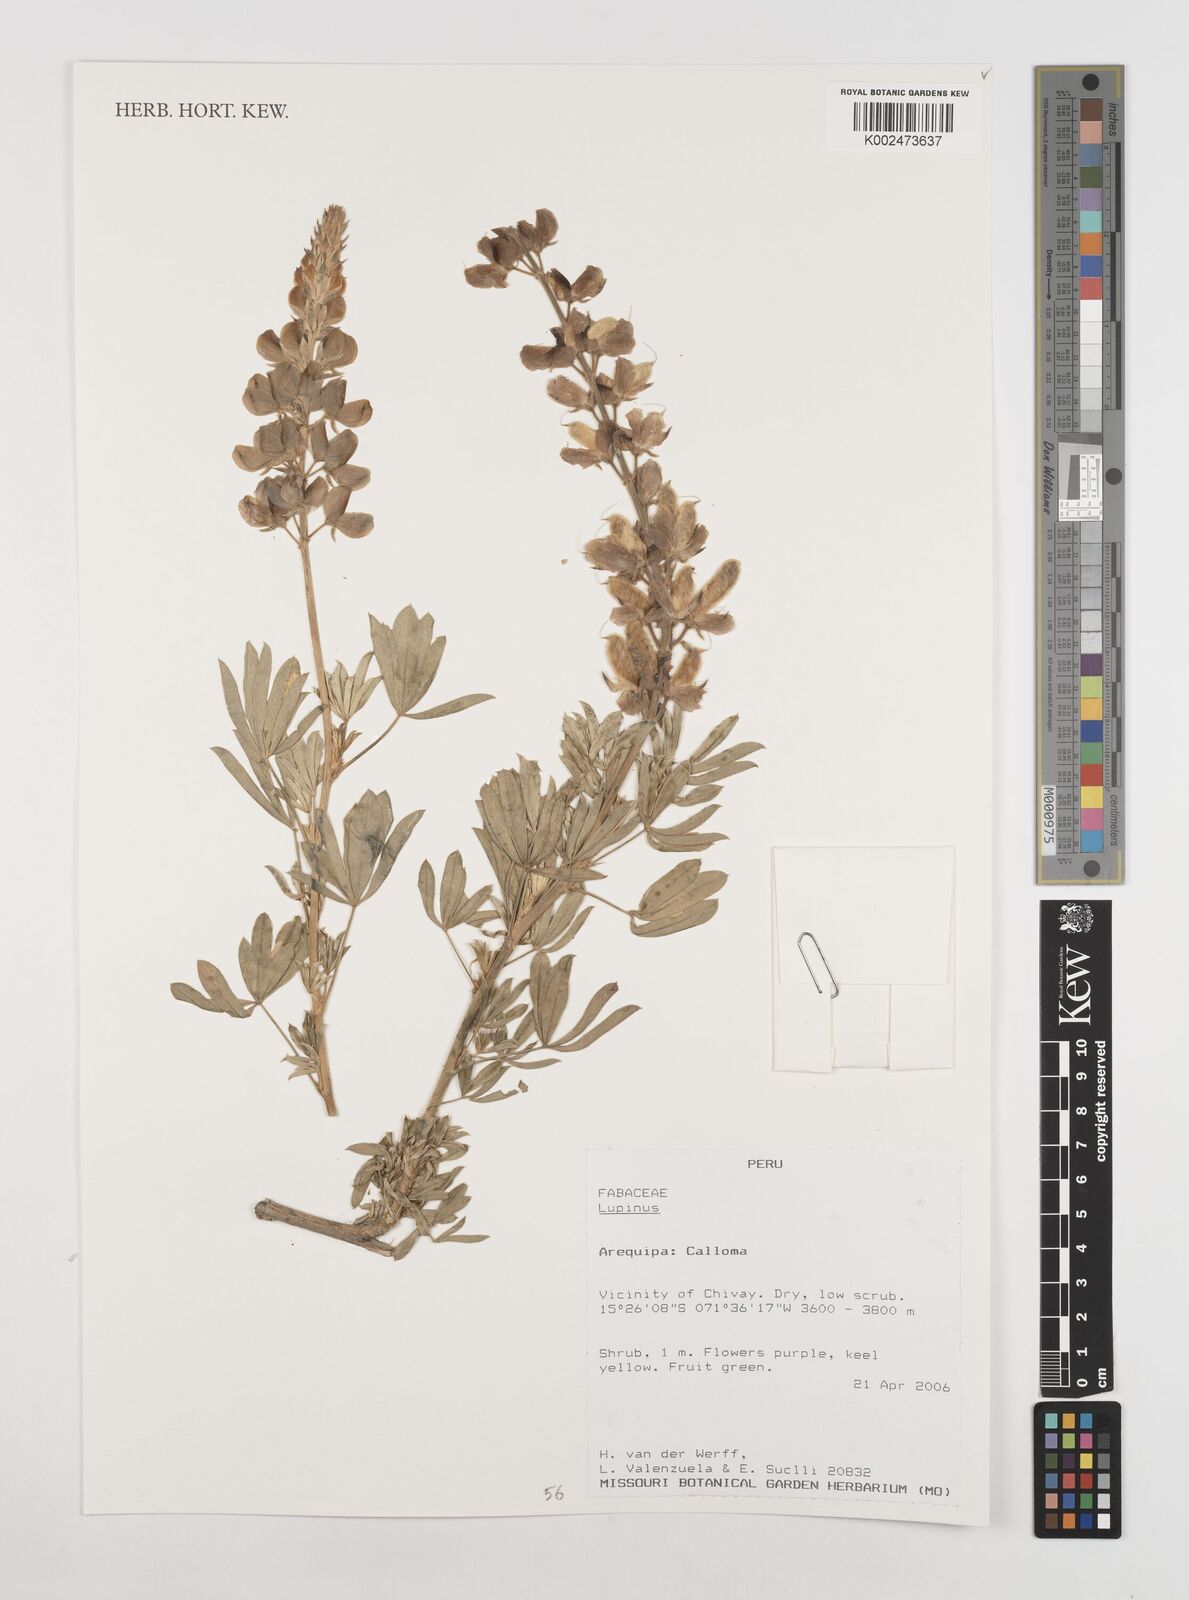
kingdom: Plantae
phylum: Tracheophyta
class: Magnoliopsida
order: Fabales
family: Fabaceae
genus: Lupinus
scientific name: Lupinus
